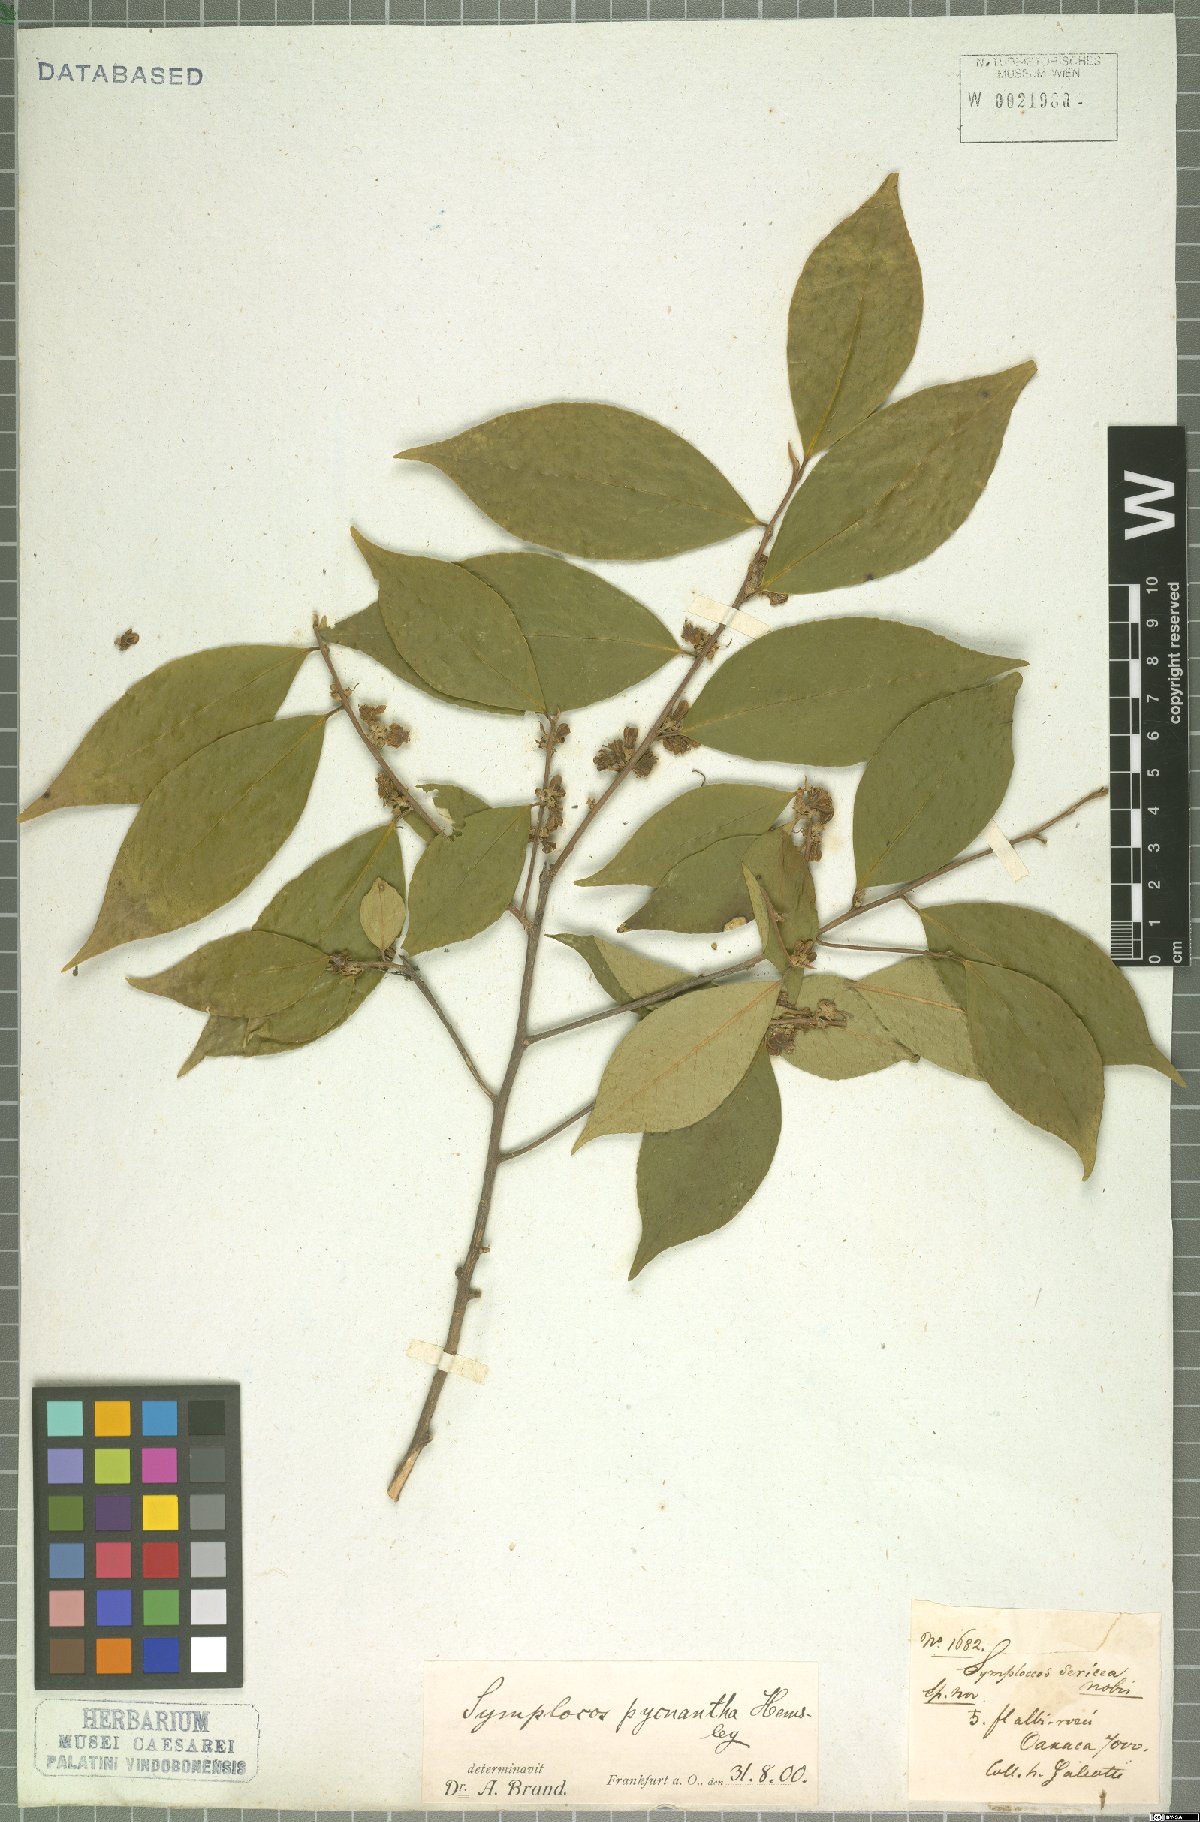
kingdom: Plantae
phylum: Tracheophyta
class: Magnoliopsida
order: Ericales
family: Symplocaceae
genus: Symplocos
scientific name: Symplocos speciosa
